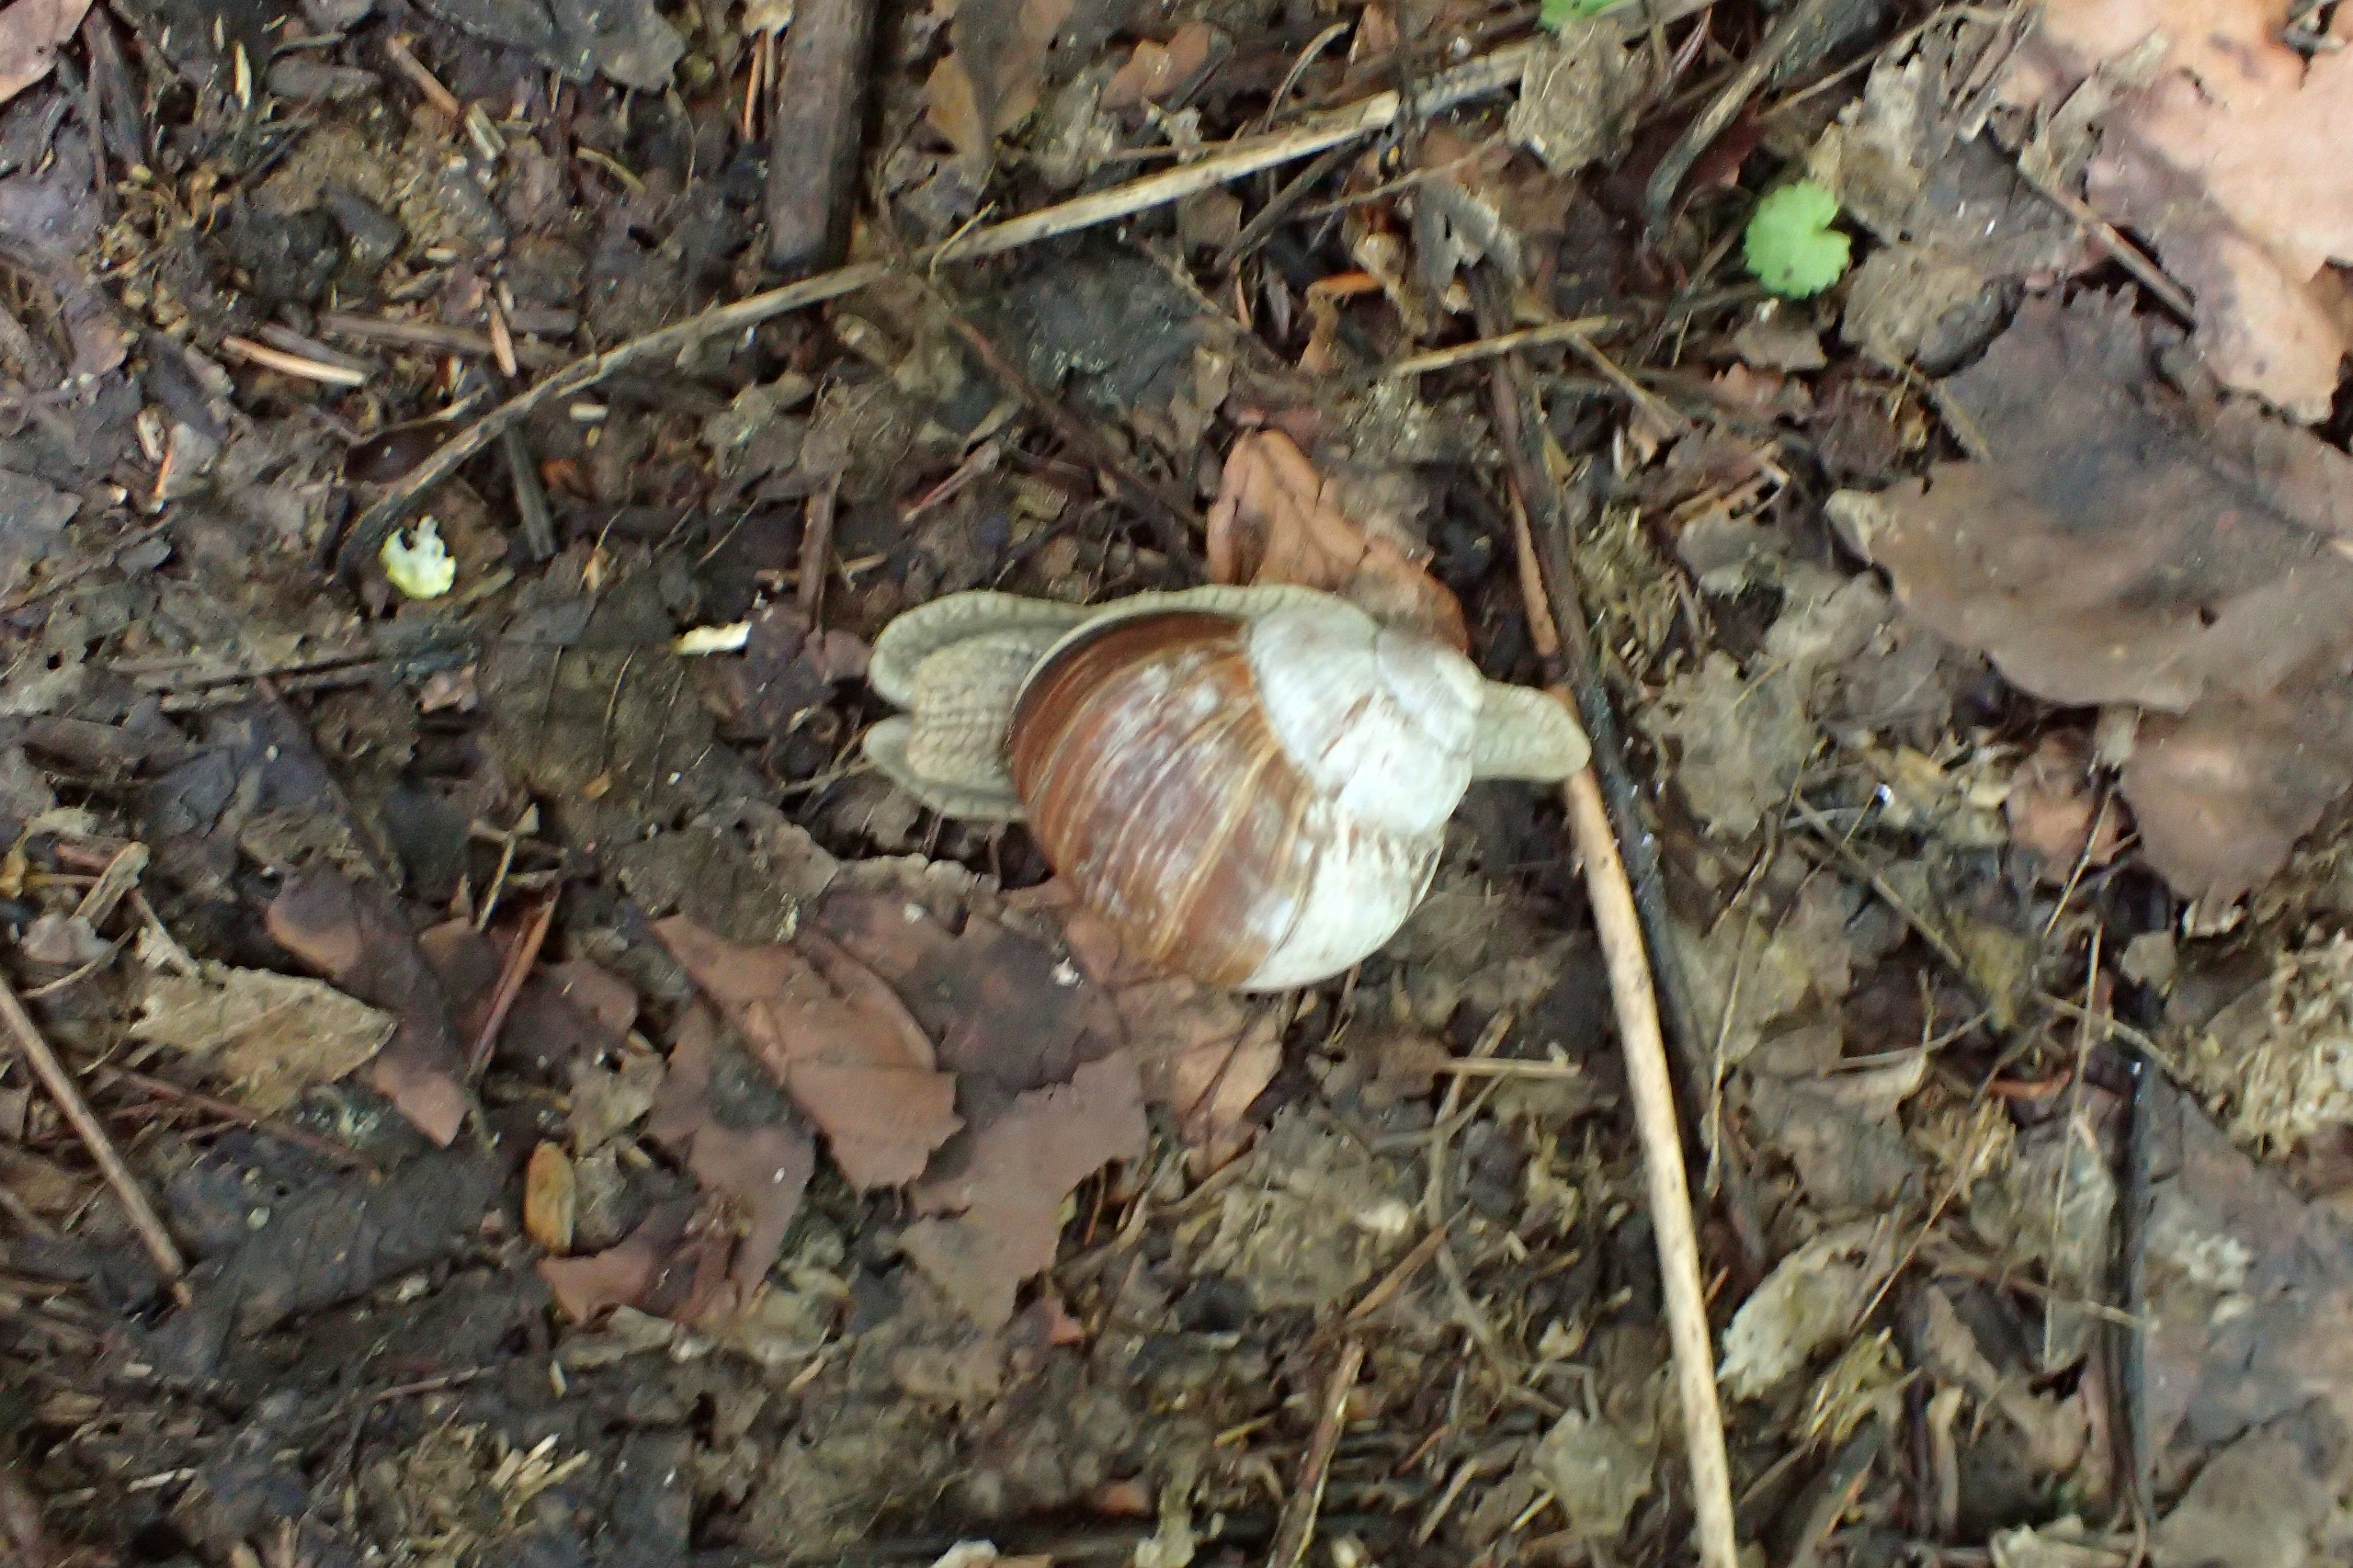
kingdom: Animalia
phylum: Mollusca
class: Gastropoda
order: Stylommatophora
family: Helicidae
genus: Helix
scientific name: Helix pomatia
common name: Vinbjergsnegl
